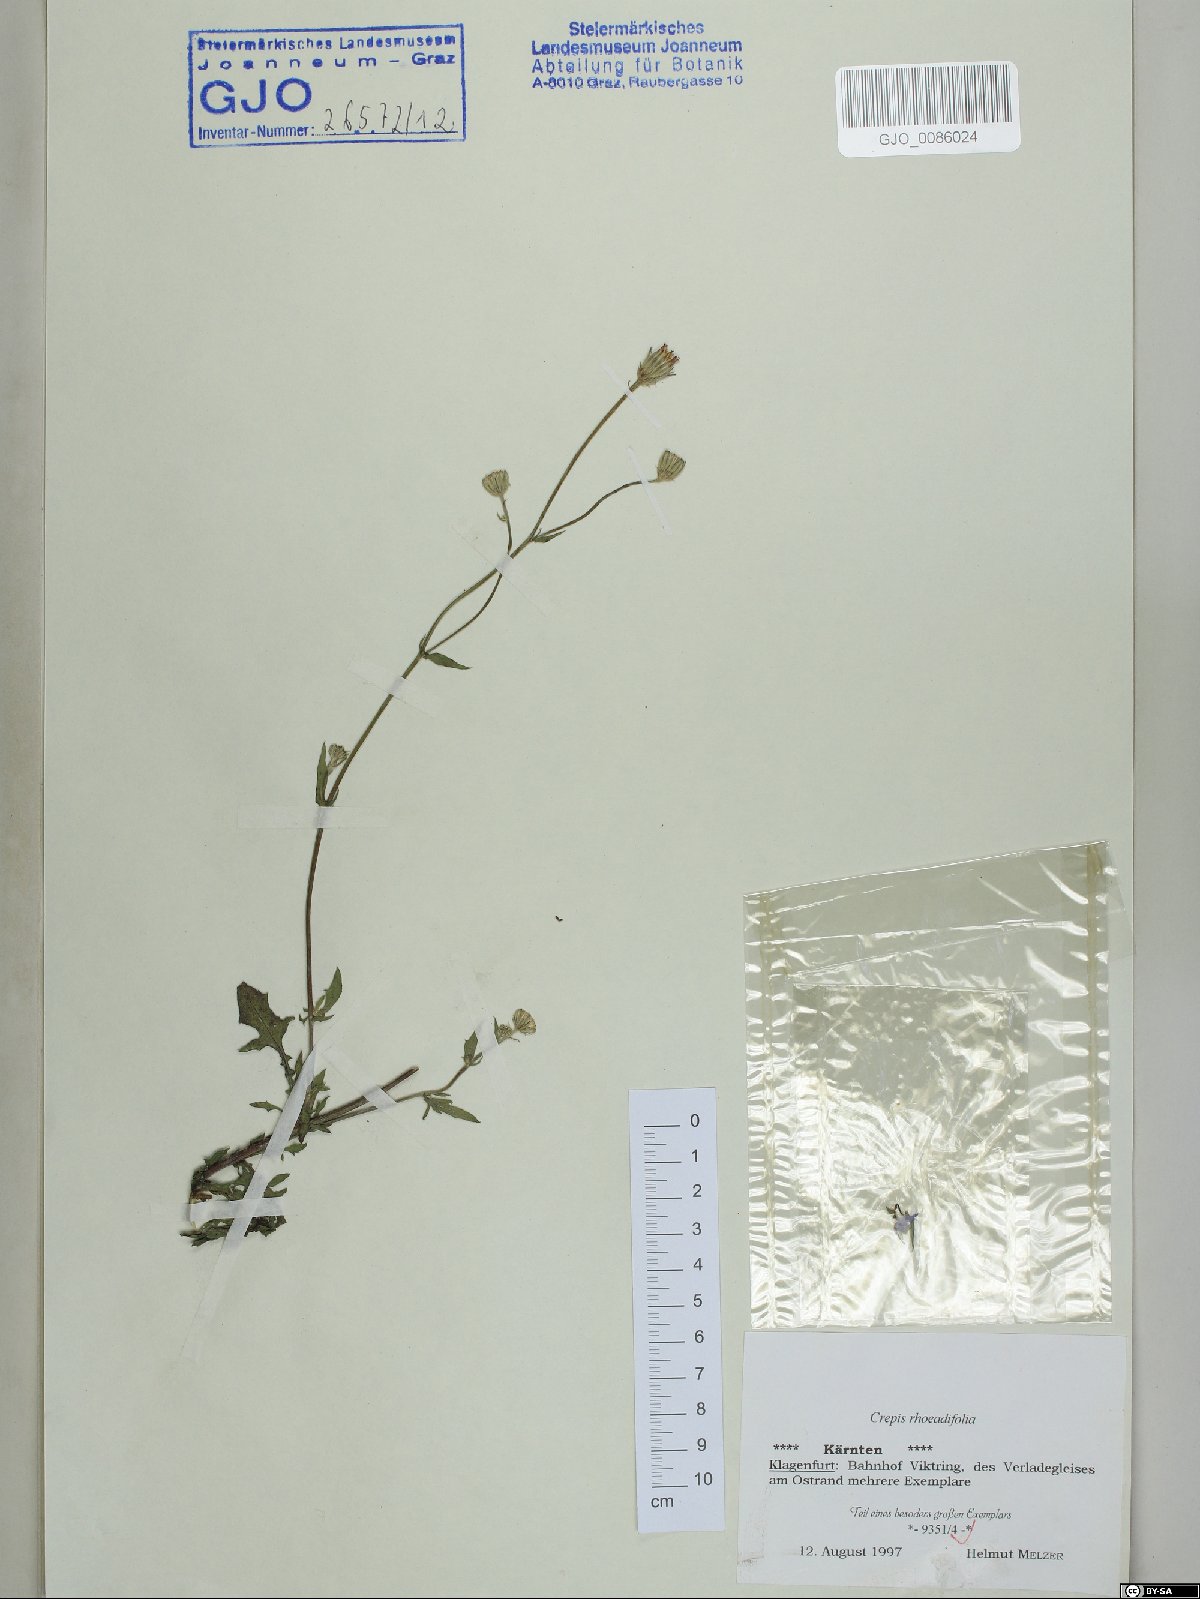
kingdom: Plantae
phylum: Tracheophyta
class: Magnoliopsida
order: Asterales
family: Asteraceae
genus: Crepis
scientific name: Crepis foetida
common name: Stinking hawk's-beard
